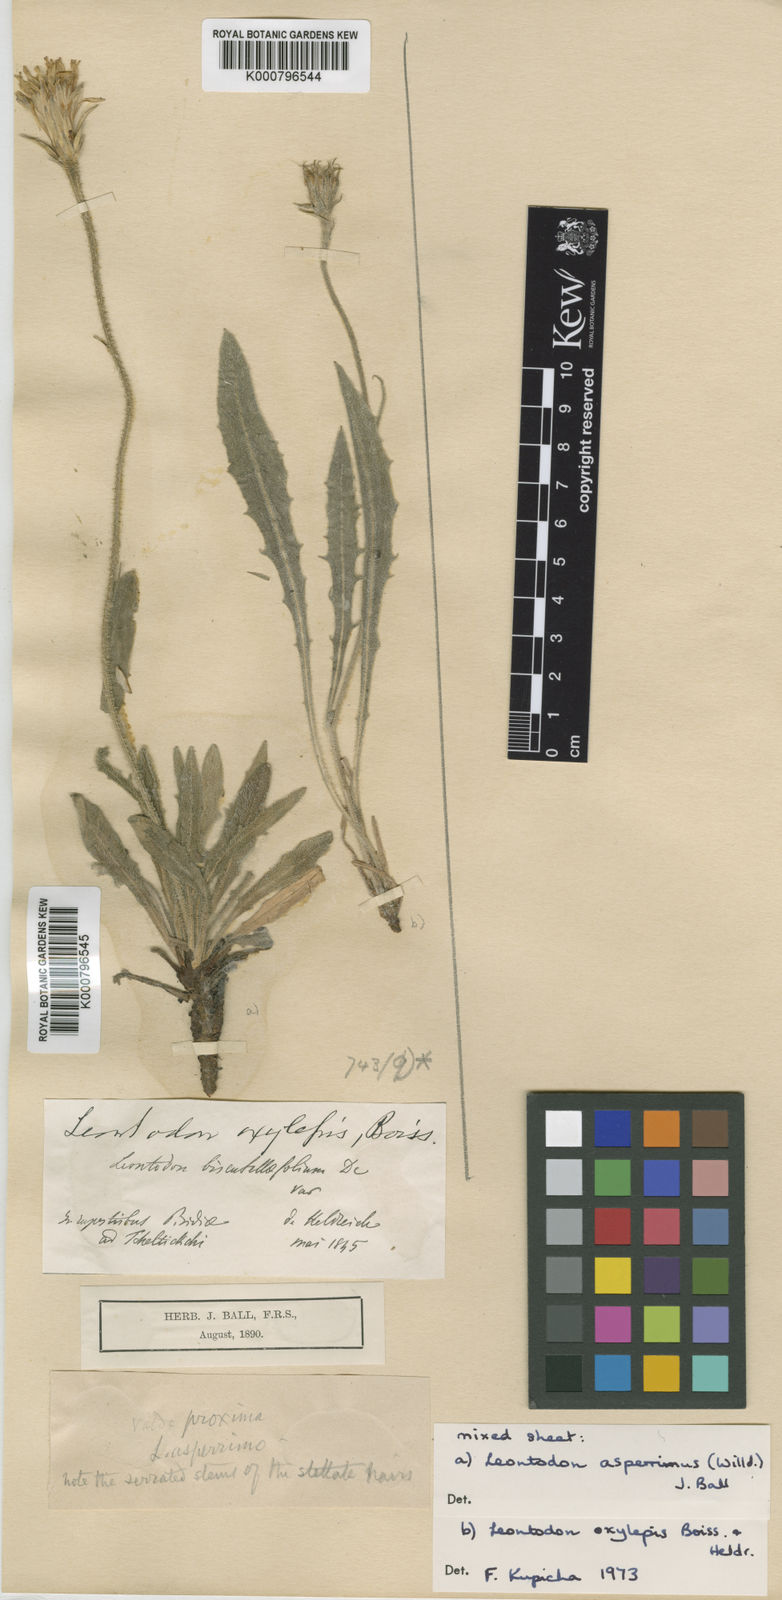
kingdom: Plantae
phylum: Tracheophyta
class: Magnoliopsida
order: Asterales
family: Asteraceae
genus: Leontodon
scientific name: Leontodon oxylepis
